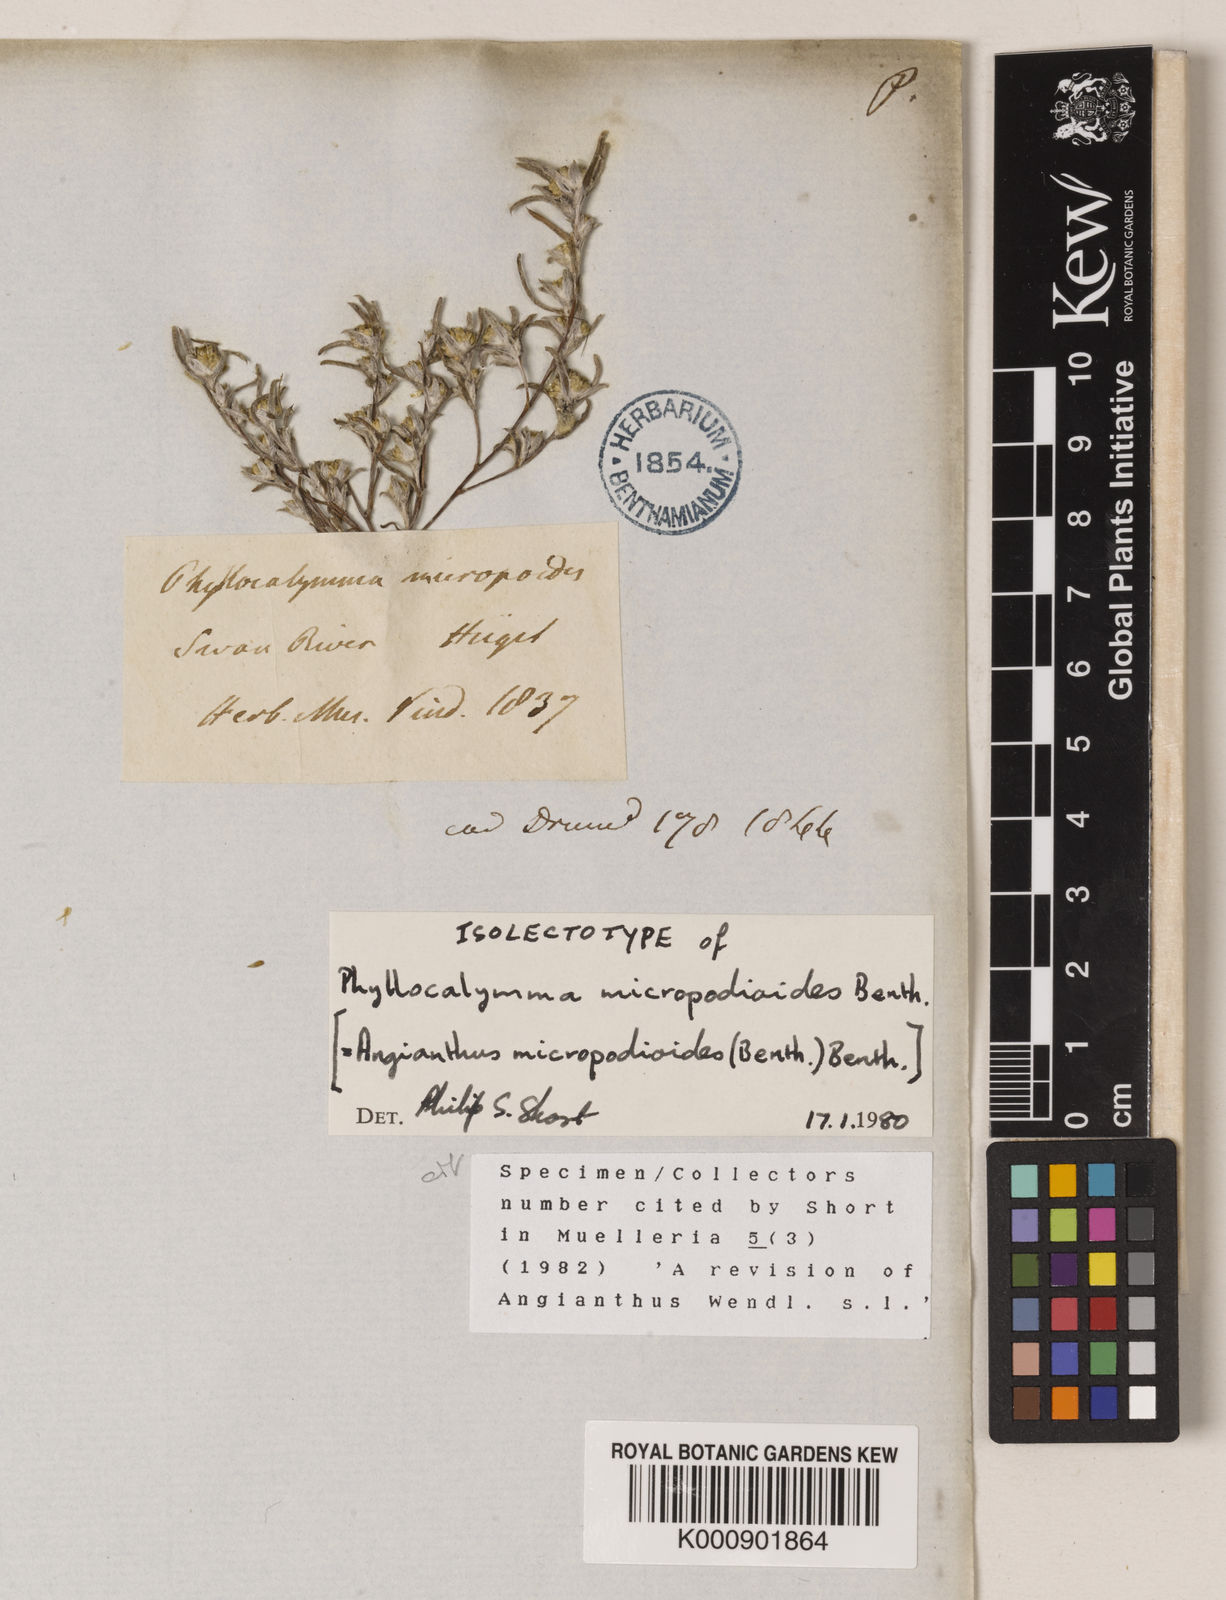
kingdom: Plantae
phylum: Tracheophyta
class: Magnoliopsida
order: Asterales
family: Asteraceae
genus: Angianthus
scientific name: Angianthus micropodioides
